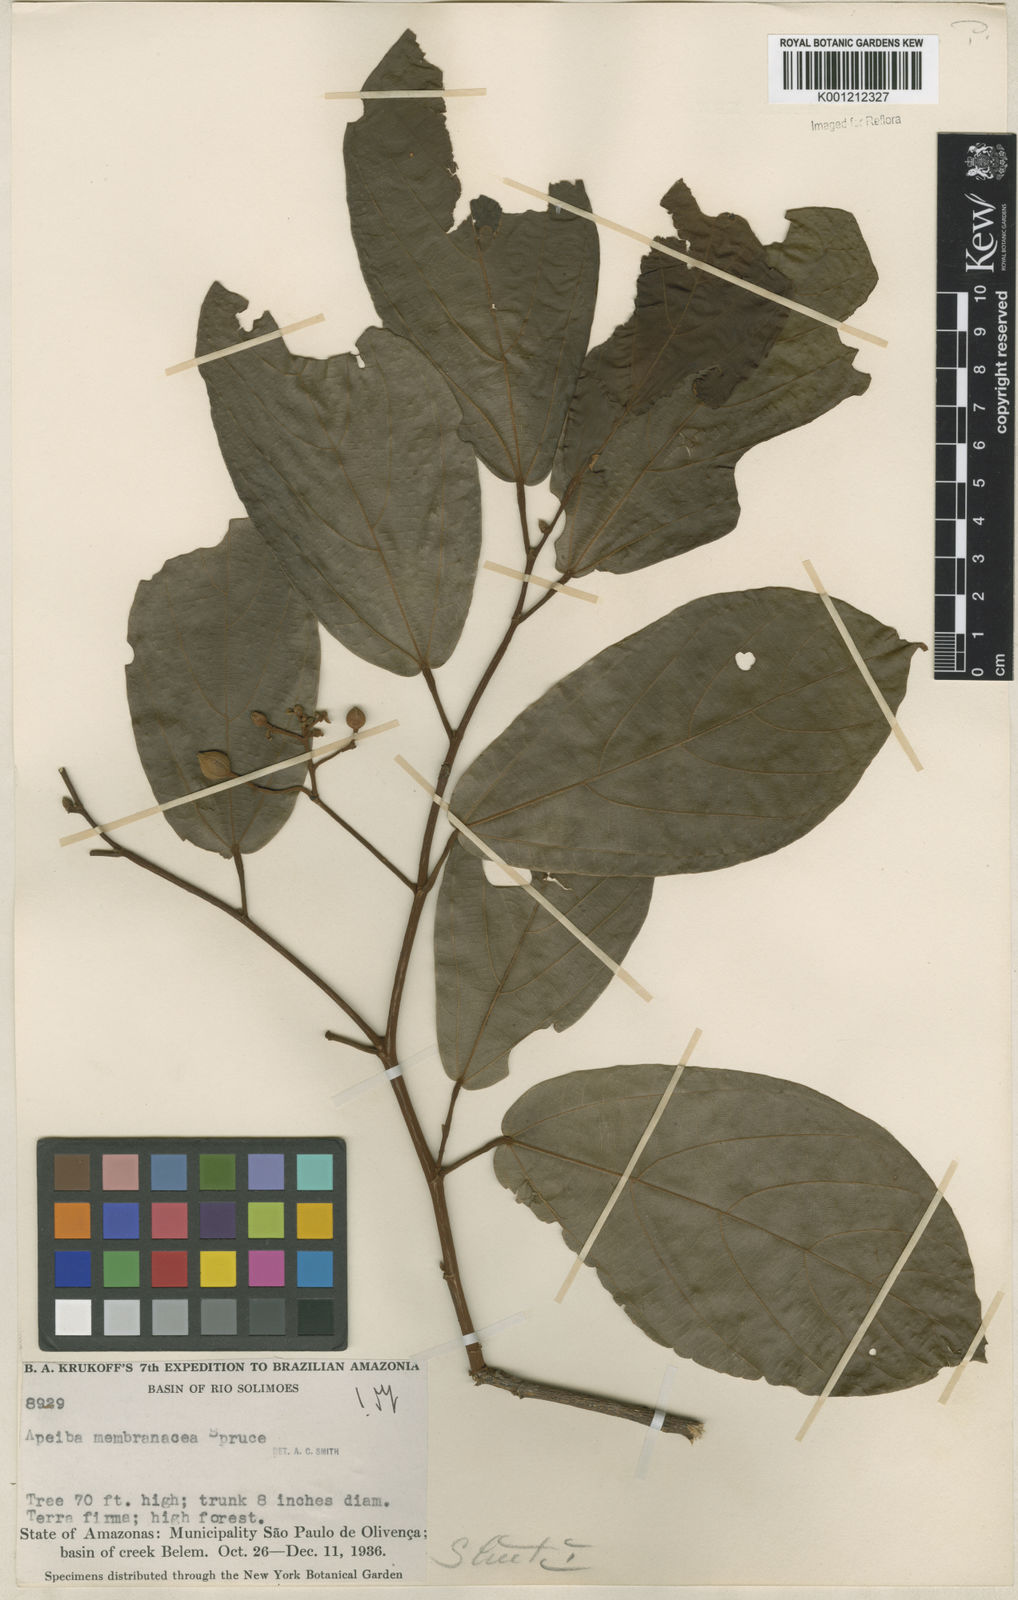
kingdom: Plantae
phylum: Tracheophyta
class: Magnoliopsida
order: Malvales
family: Malvaceae
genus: Apeiba
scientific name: Apeiba membranacea
